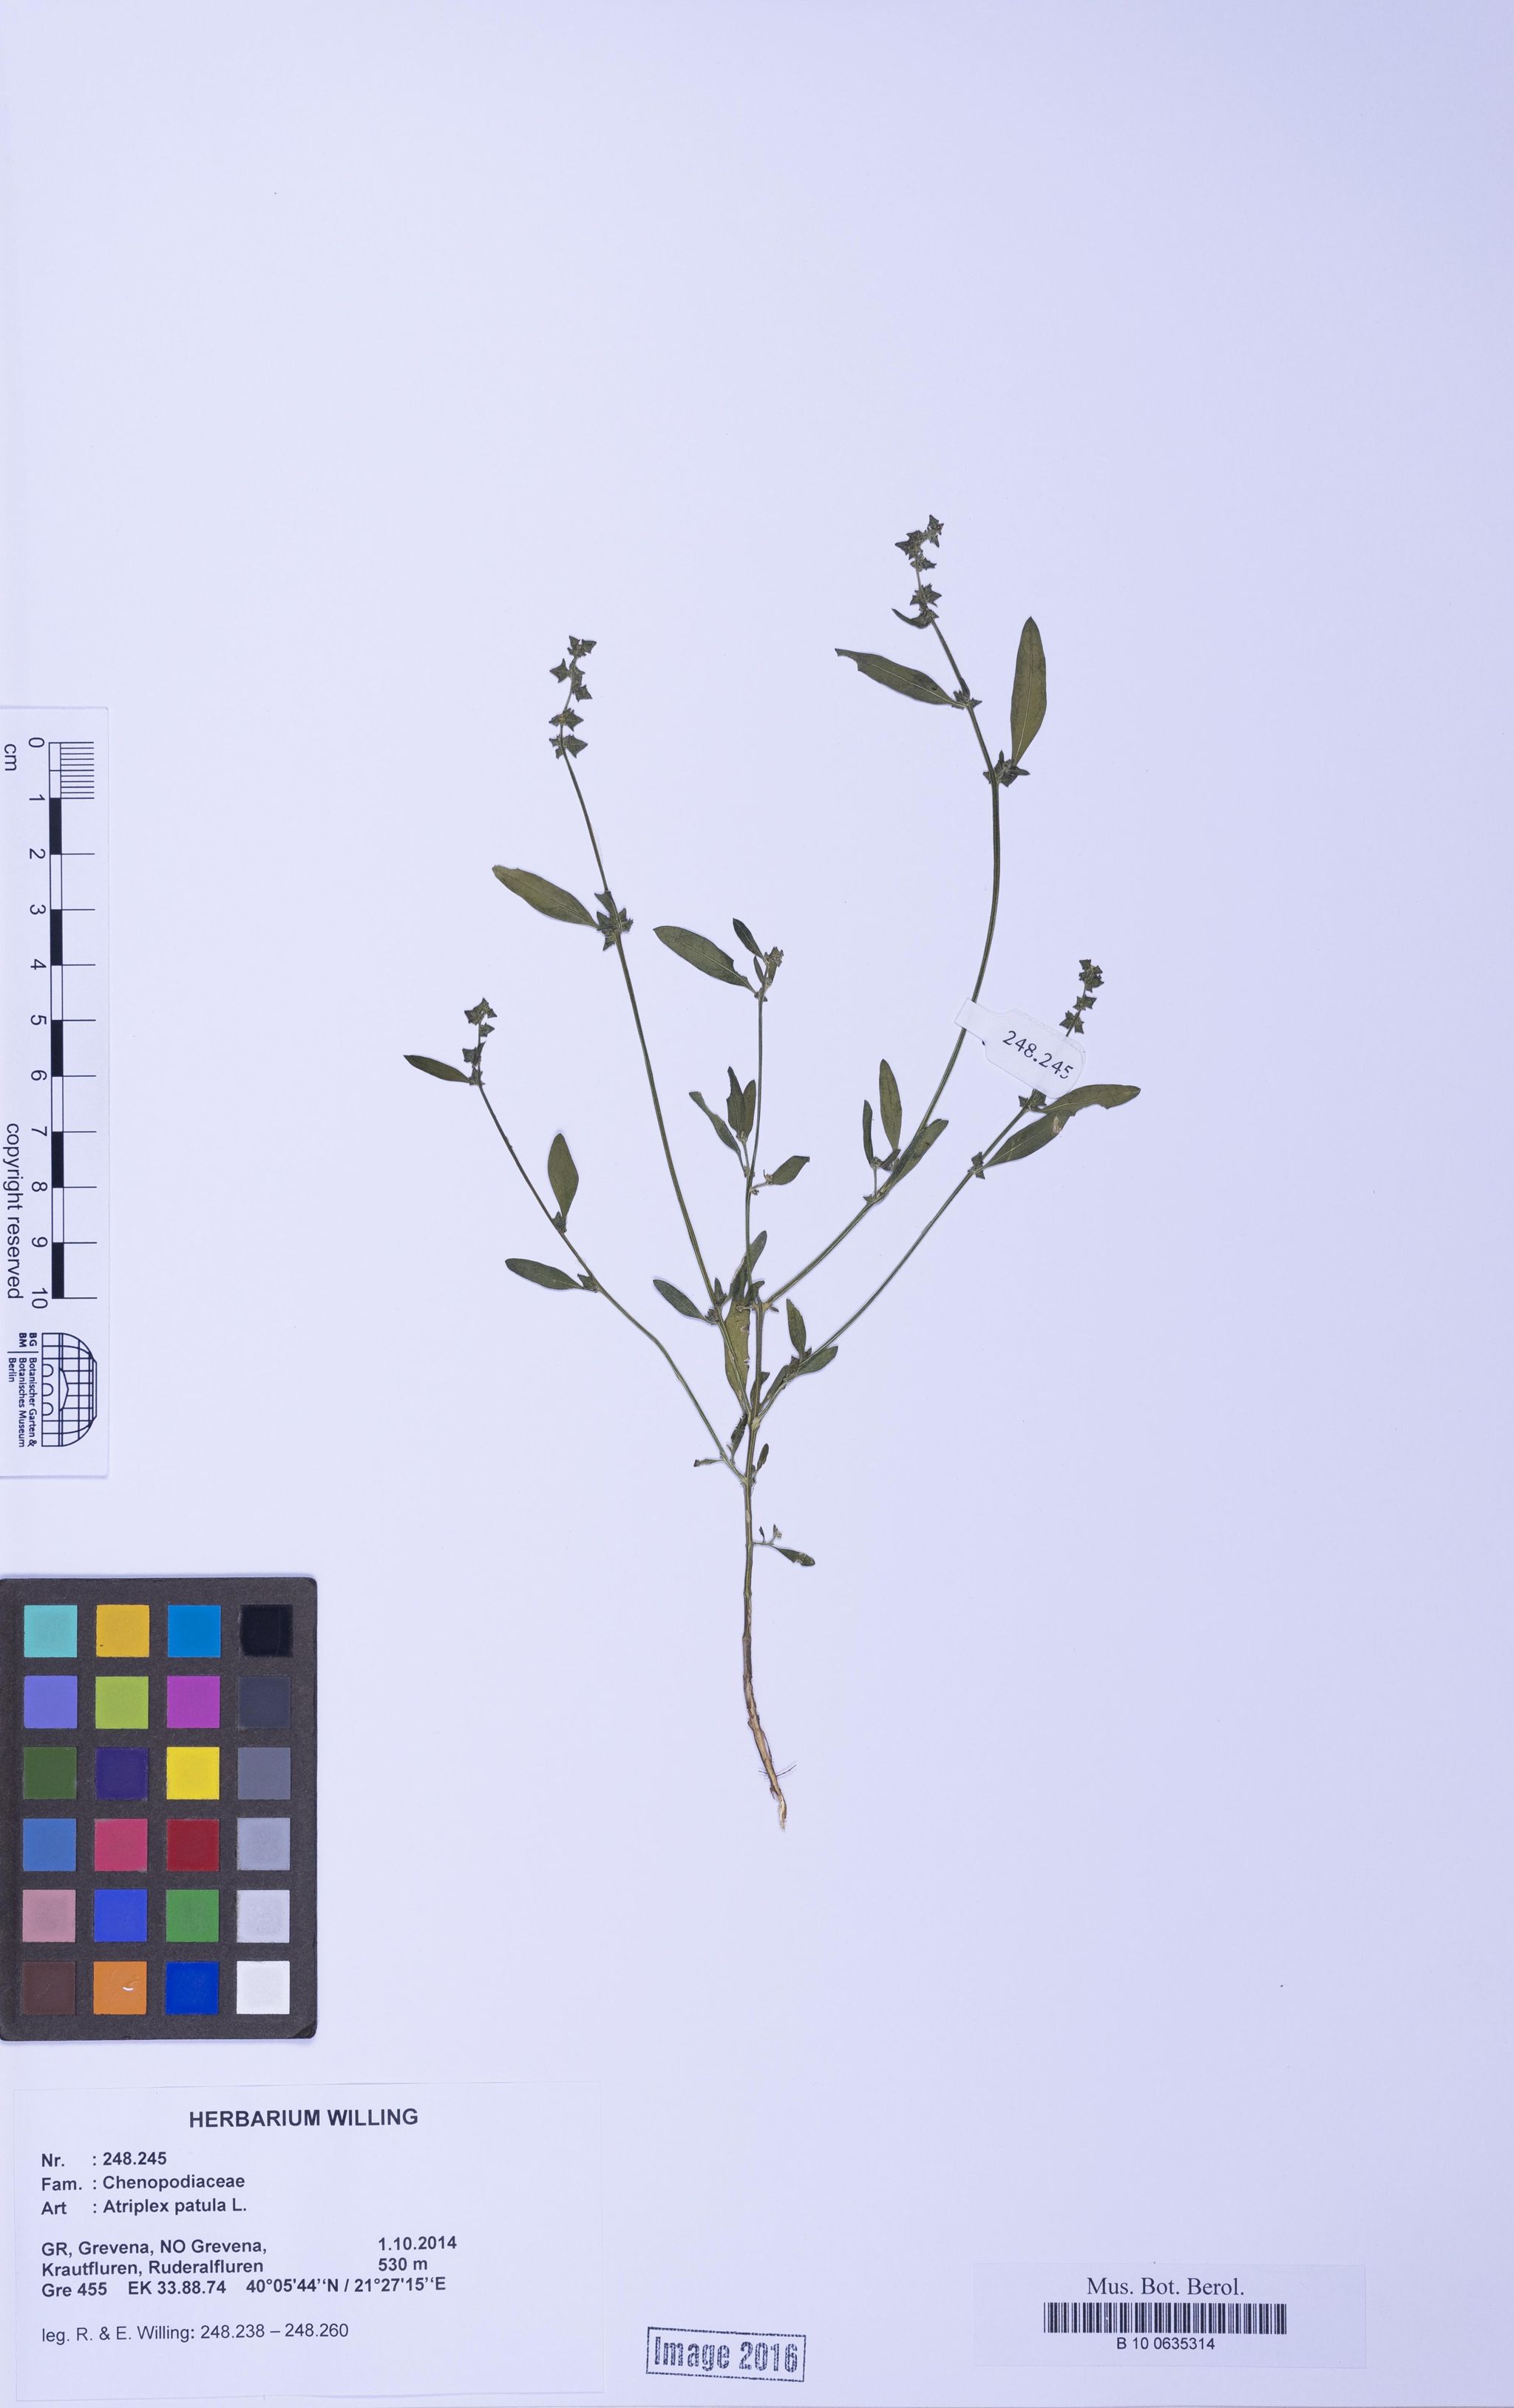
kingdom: Plantae
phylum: Tracheophyta
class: Magnoliopsida
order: Caryophyllales
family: Amaranthaceae
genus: Atriplex
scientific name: Atriplex patula
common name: Common orache
